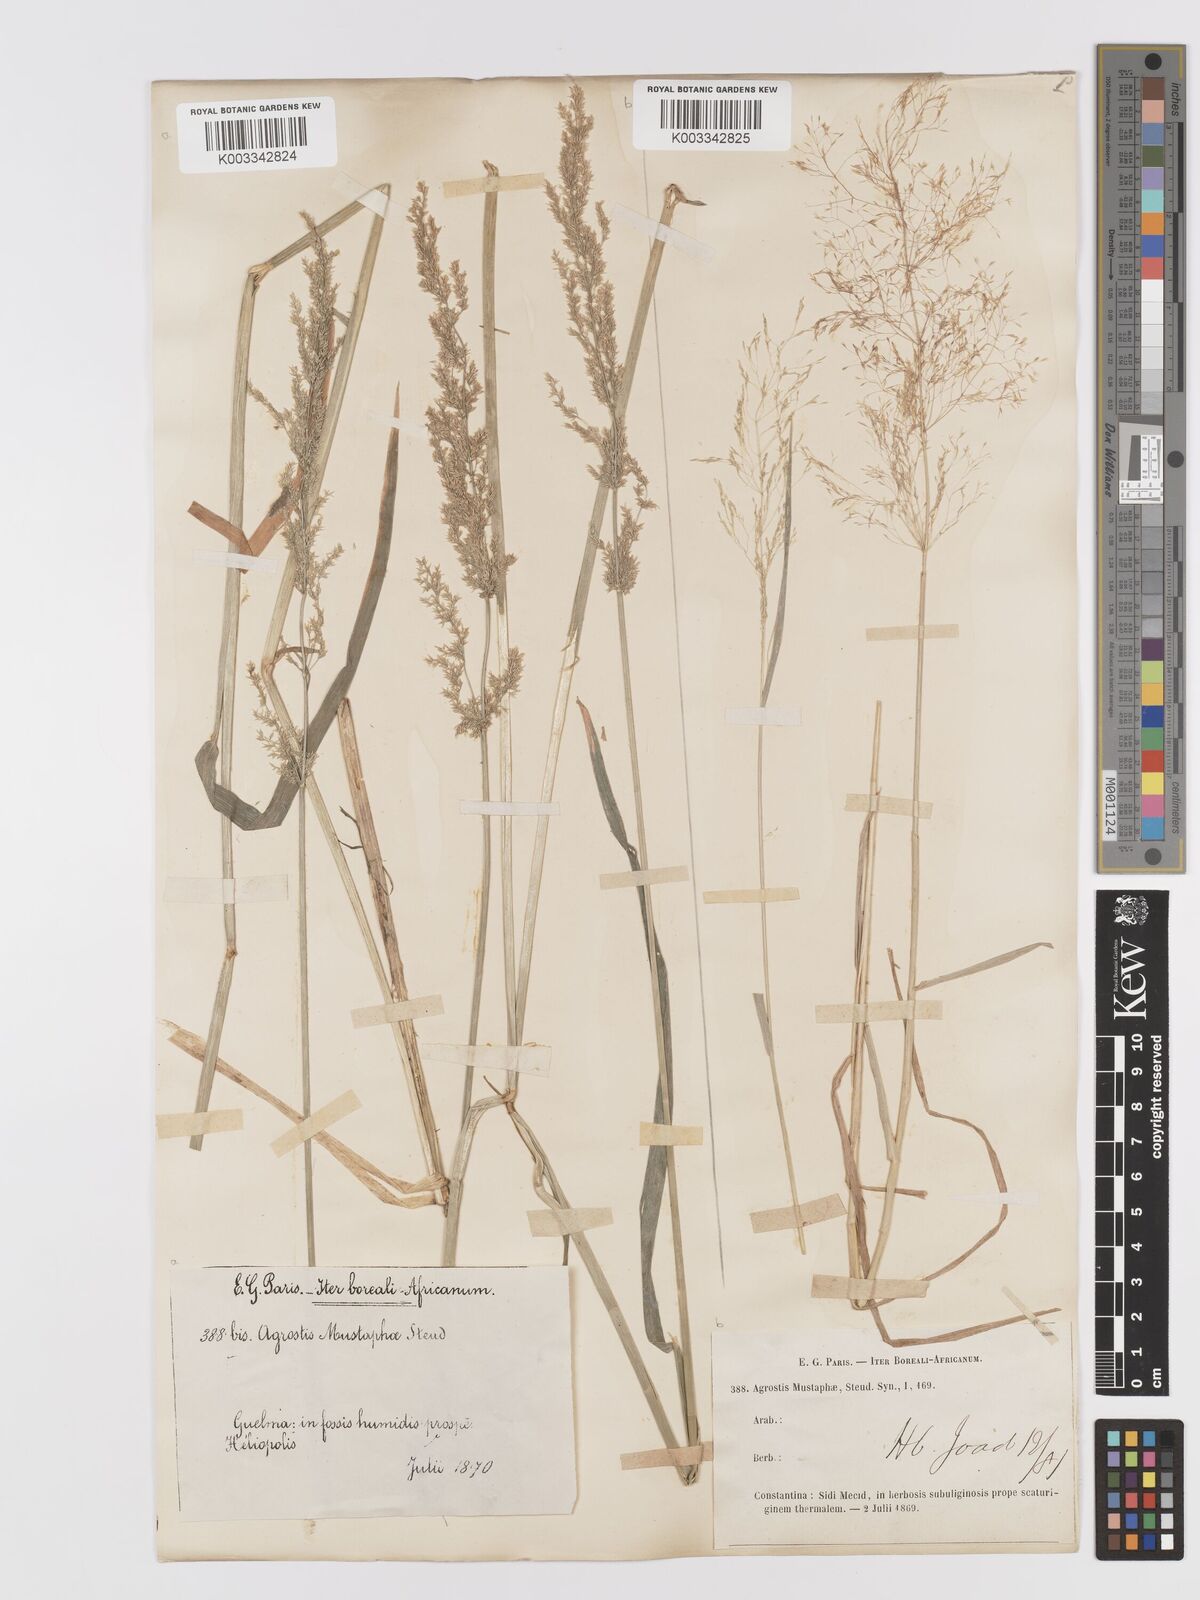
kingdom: Plantae
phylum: Tracheophyta
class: Liliopsida
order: Poales
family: Poaceae
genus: Agrostis
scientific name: Agrostis reuteri
